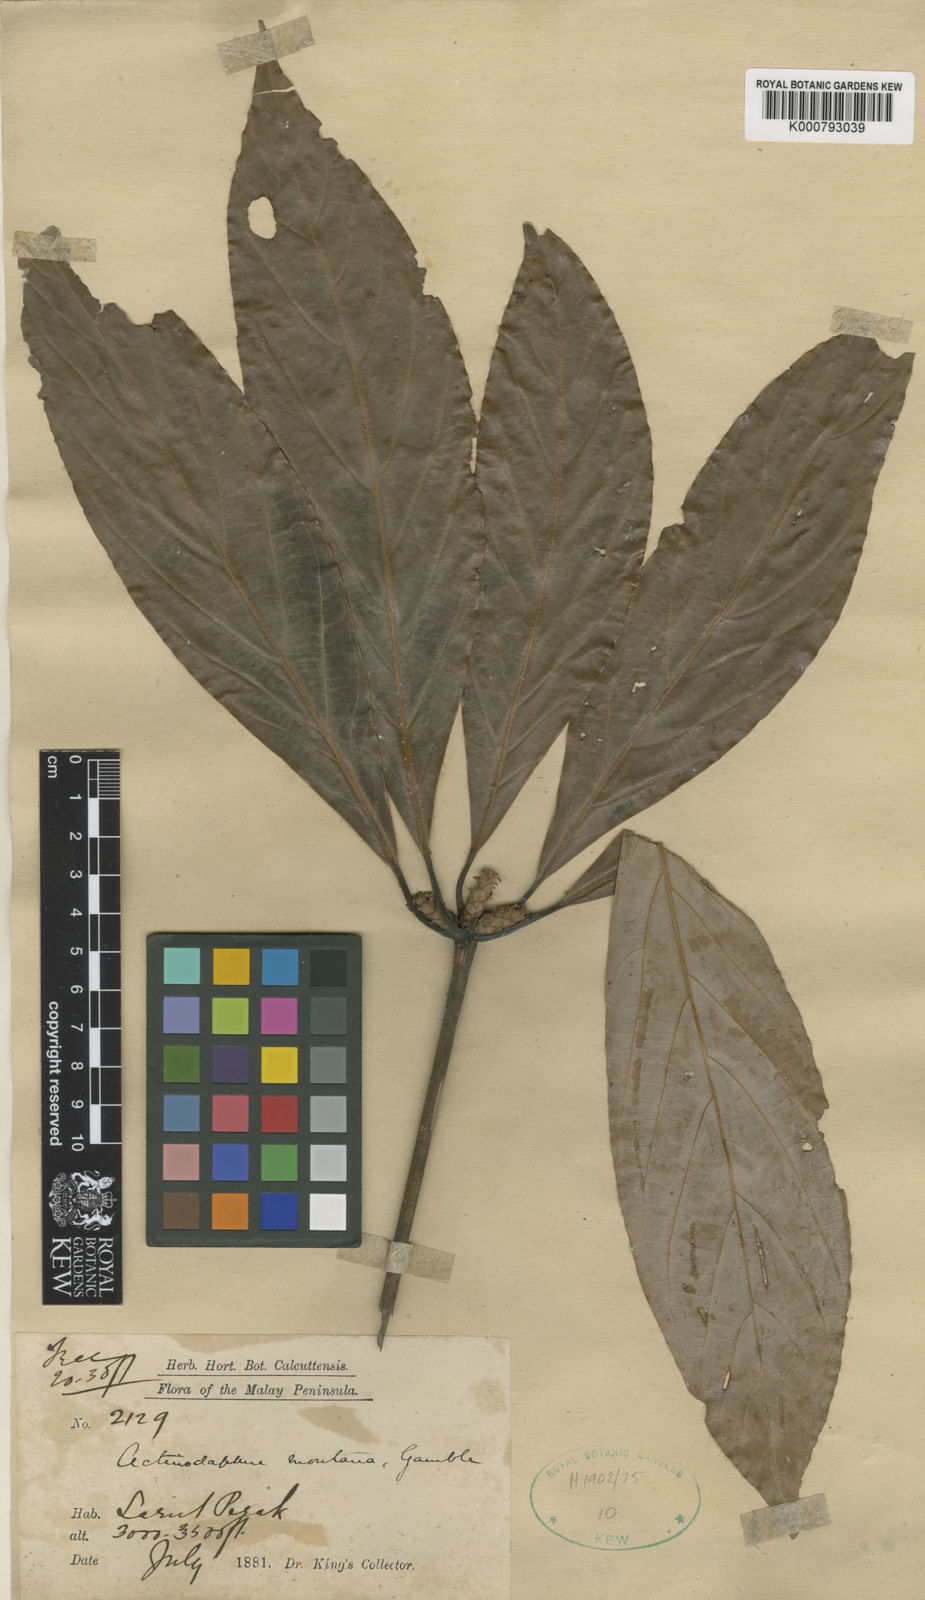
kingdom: Plantae
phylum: Tracheophyta
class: Magnoliopsida
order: Laurales
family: Lauraceae
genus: Actinodaphne
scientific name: Actinodaphne montana
